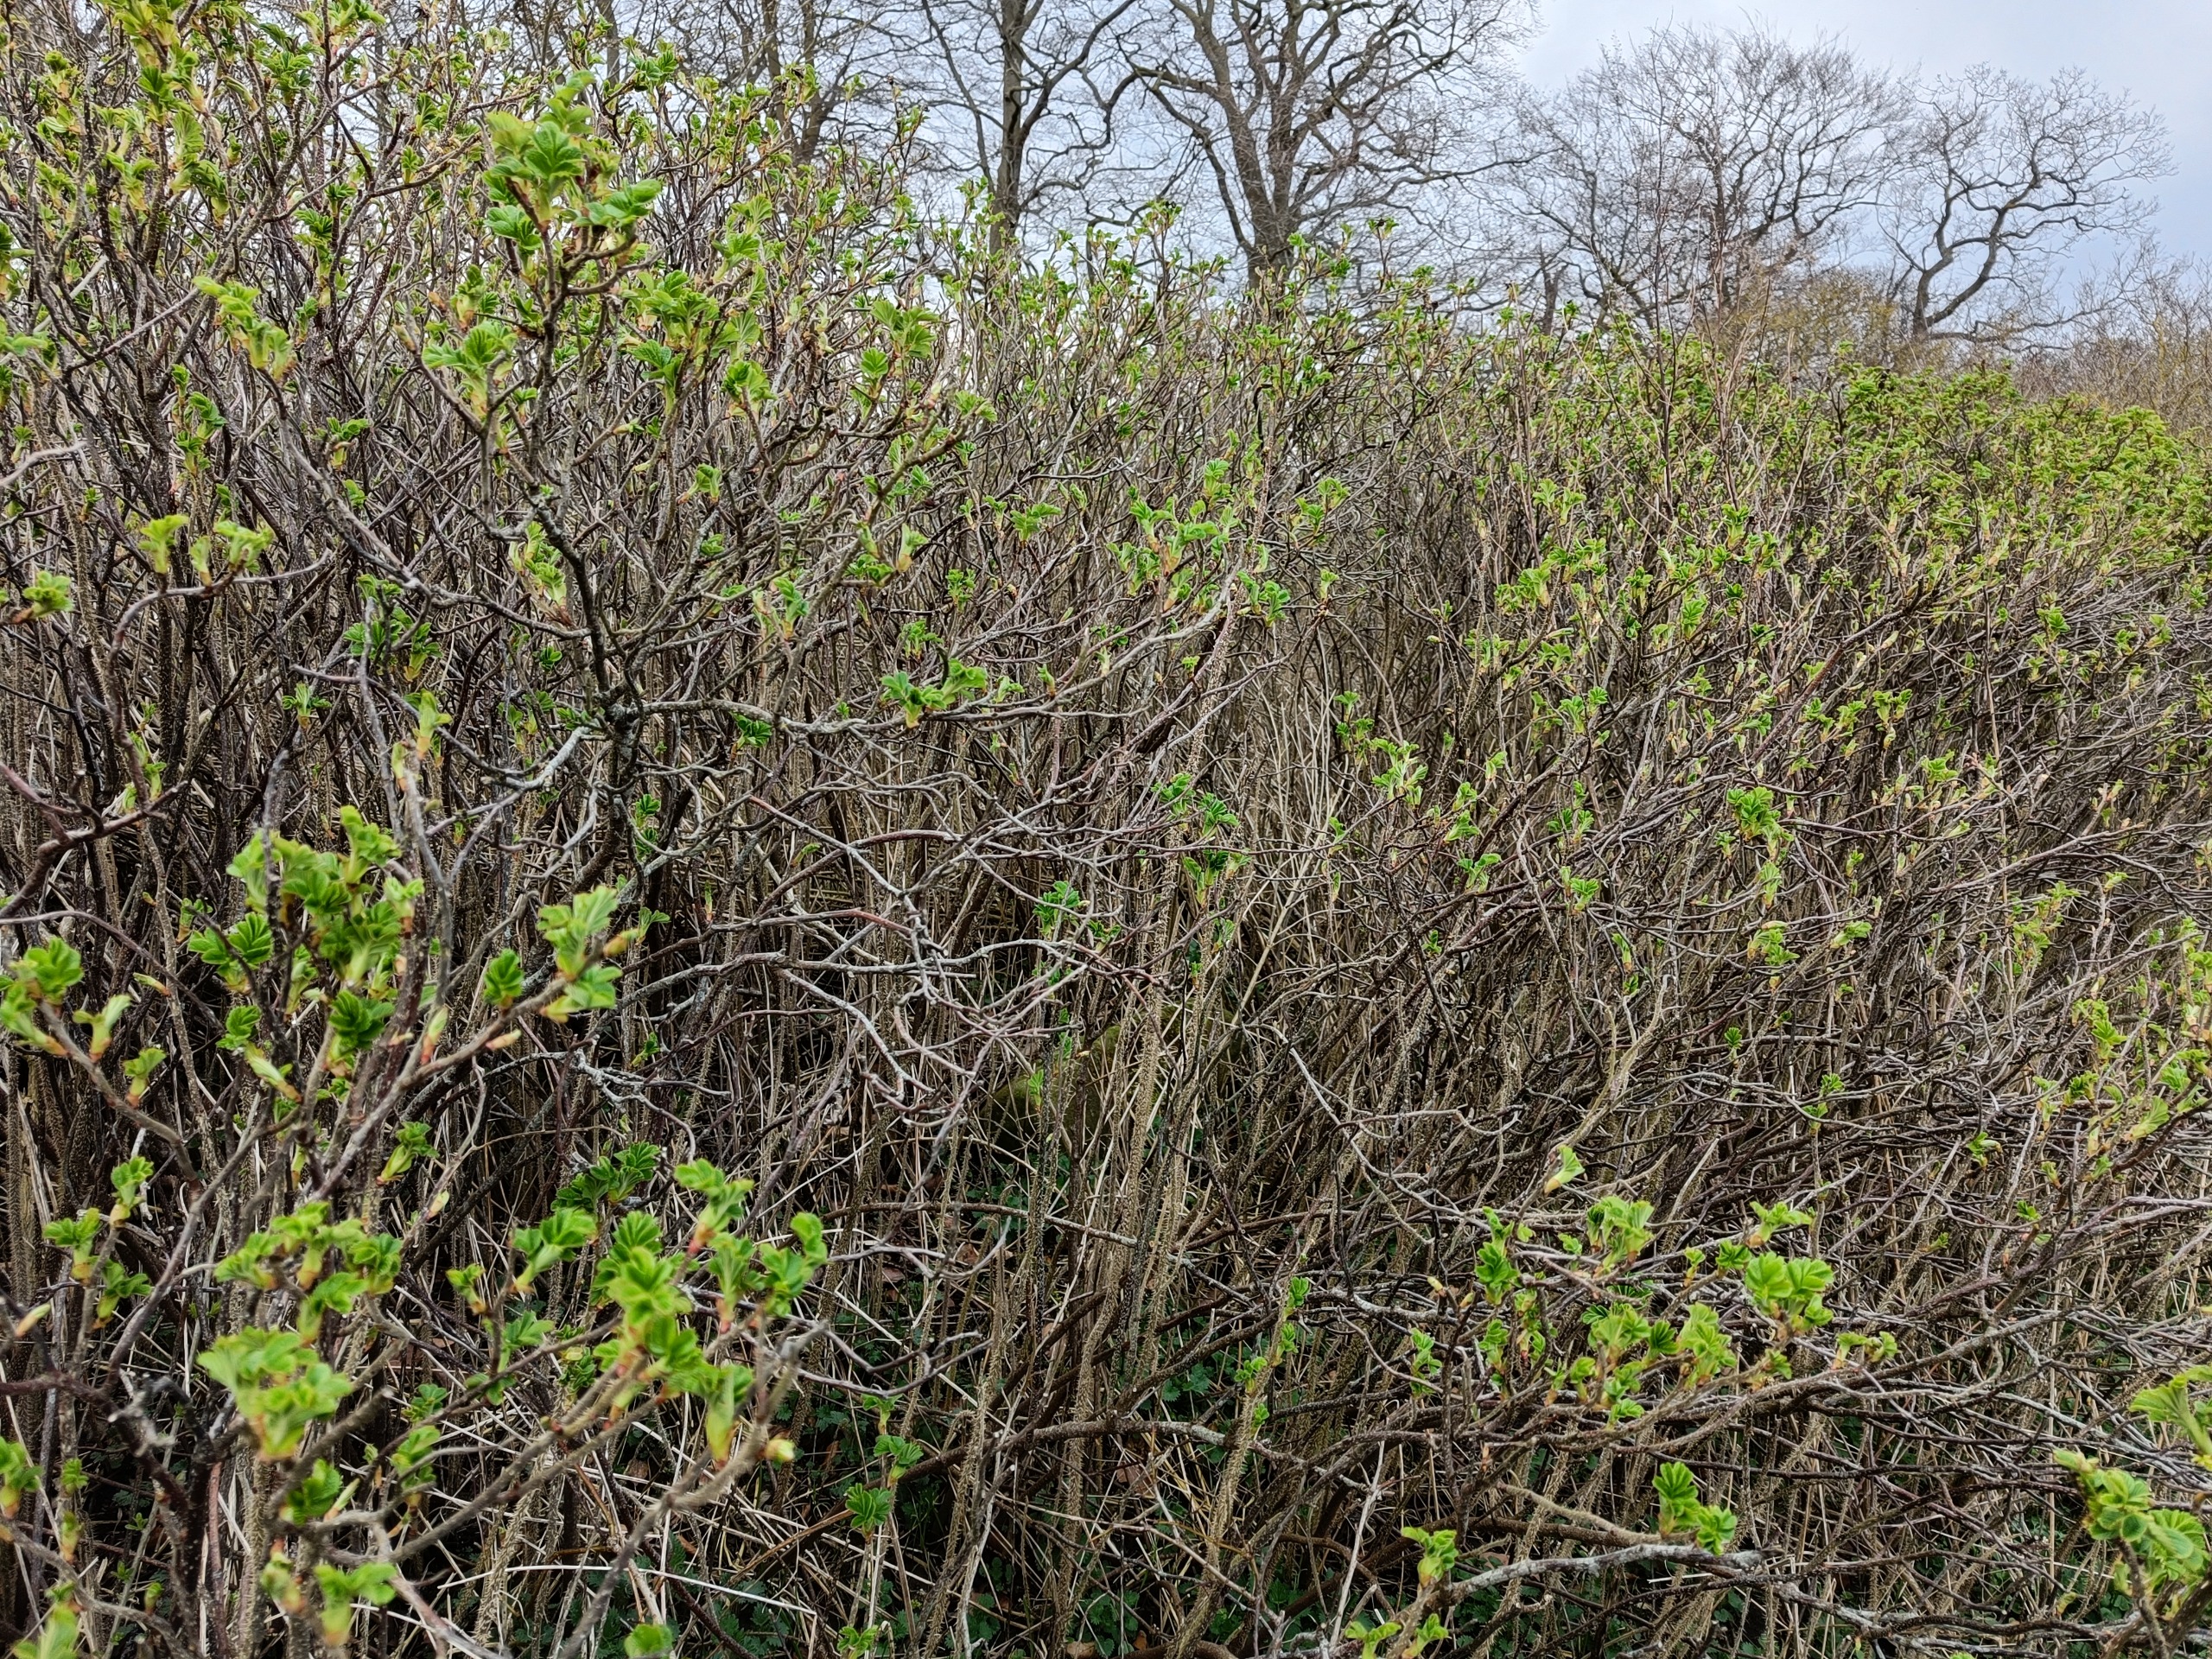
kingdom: Plantae
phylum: Tracheophyta
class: Magnoliopsida
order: Rosales
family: Rosaceae
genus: Rosa
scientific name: Rosa rugosa
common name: Rynket rose
